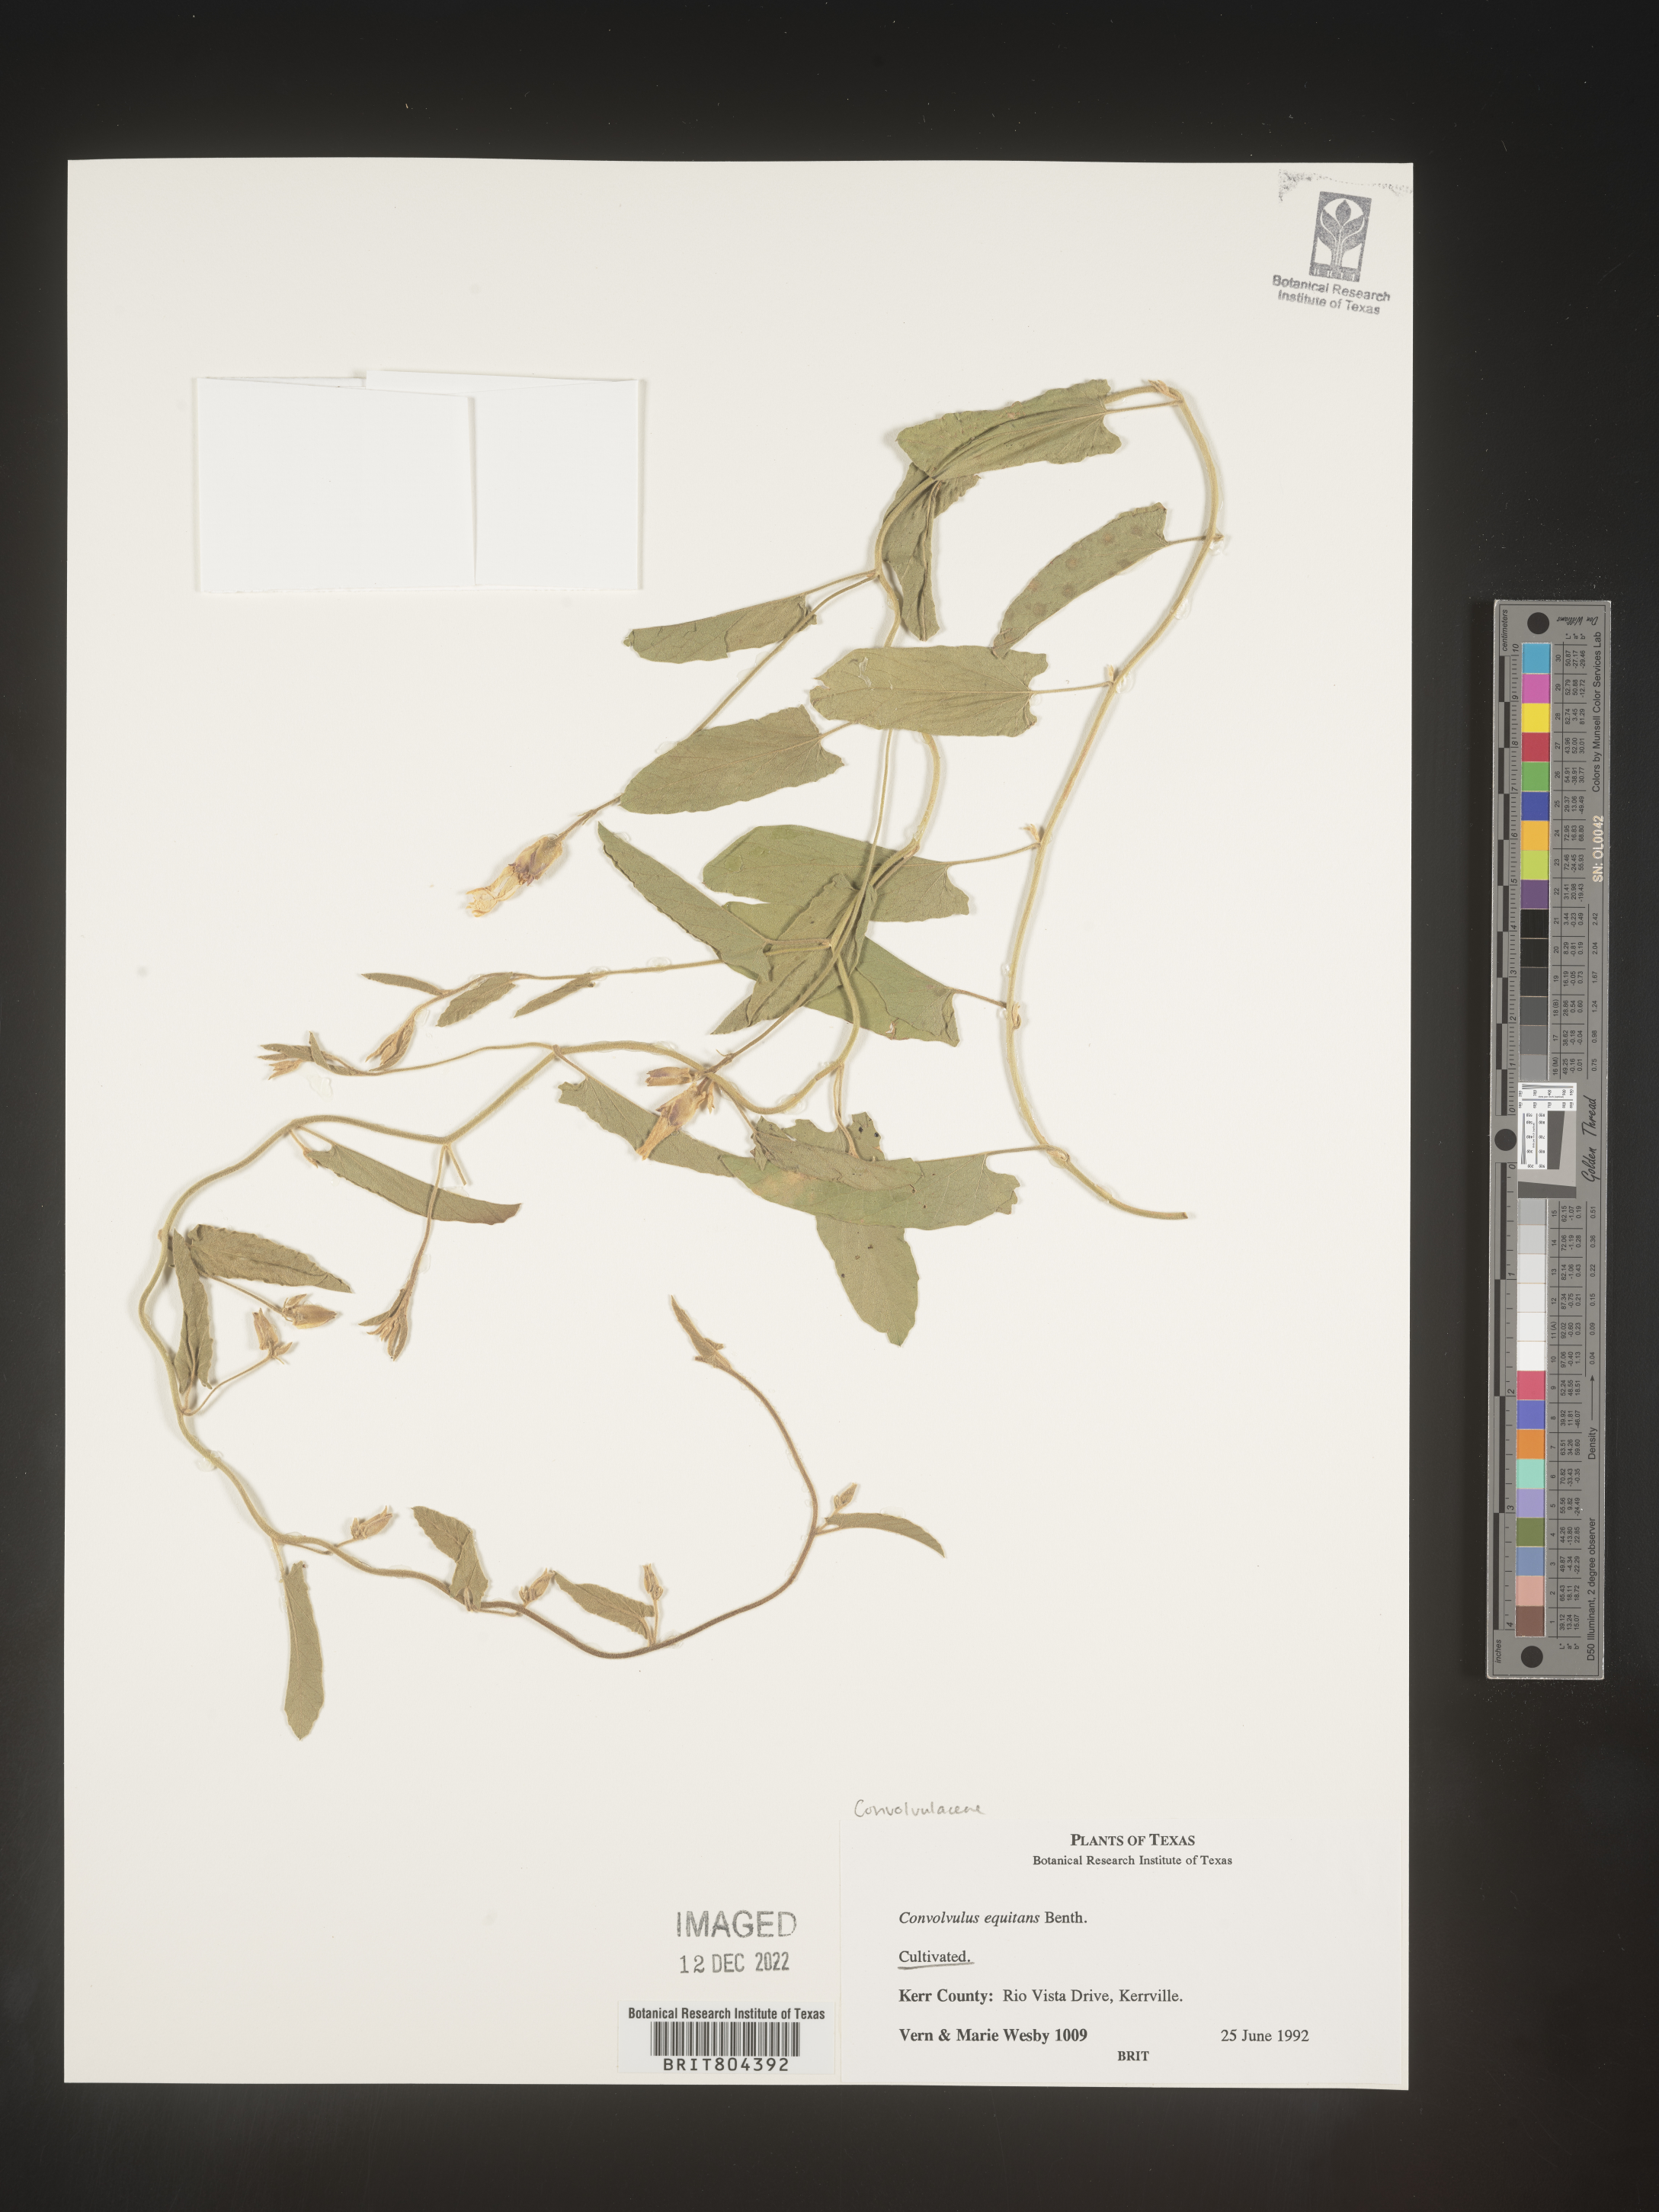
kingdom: Plantae
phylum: Tracheophyta
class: Magnoliopsida
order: Solanales
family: Convolvulaceae
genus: Convolvulus
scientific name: Convolvulus
